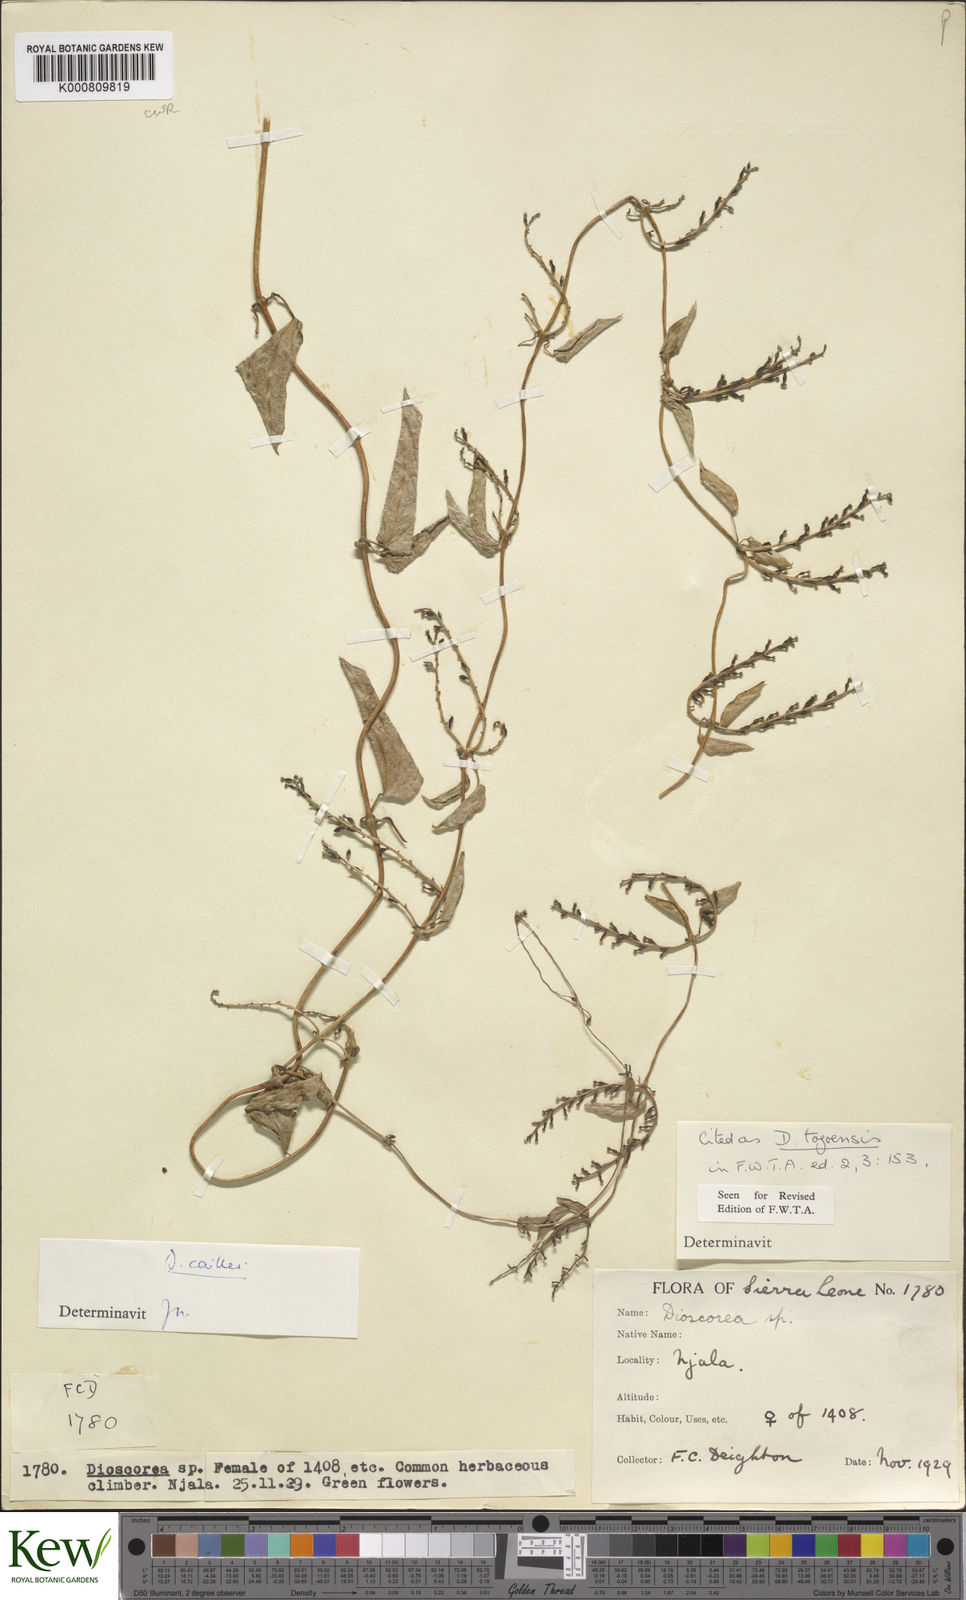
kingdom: Plantae
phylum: Tracheophyta
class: Liliopsida
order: Dioscoreales
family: Dioscoreaceae
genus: Dioscorea
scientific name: Dioscorea togoensis
